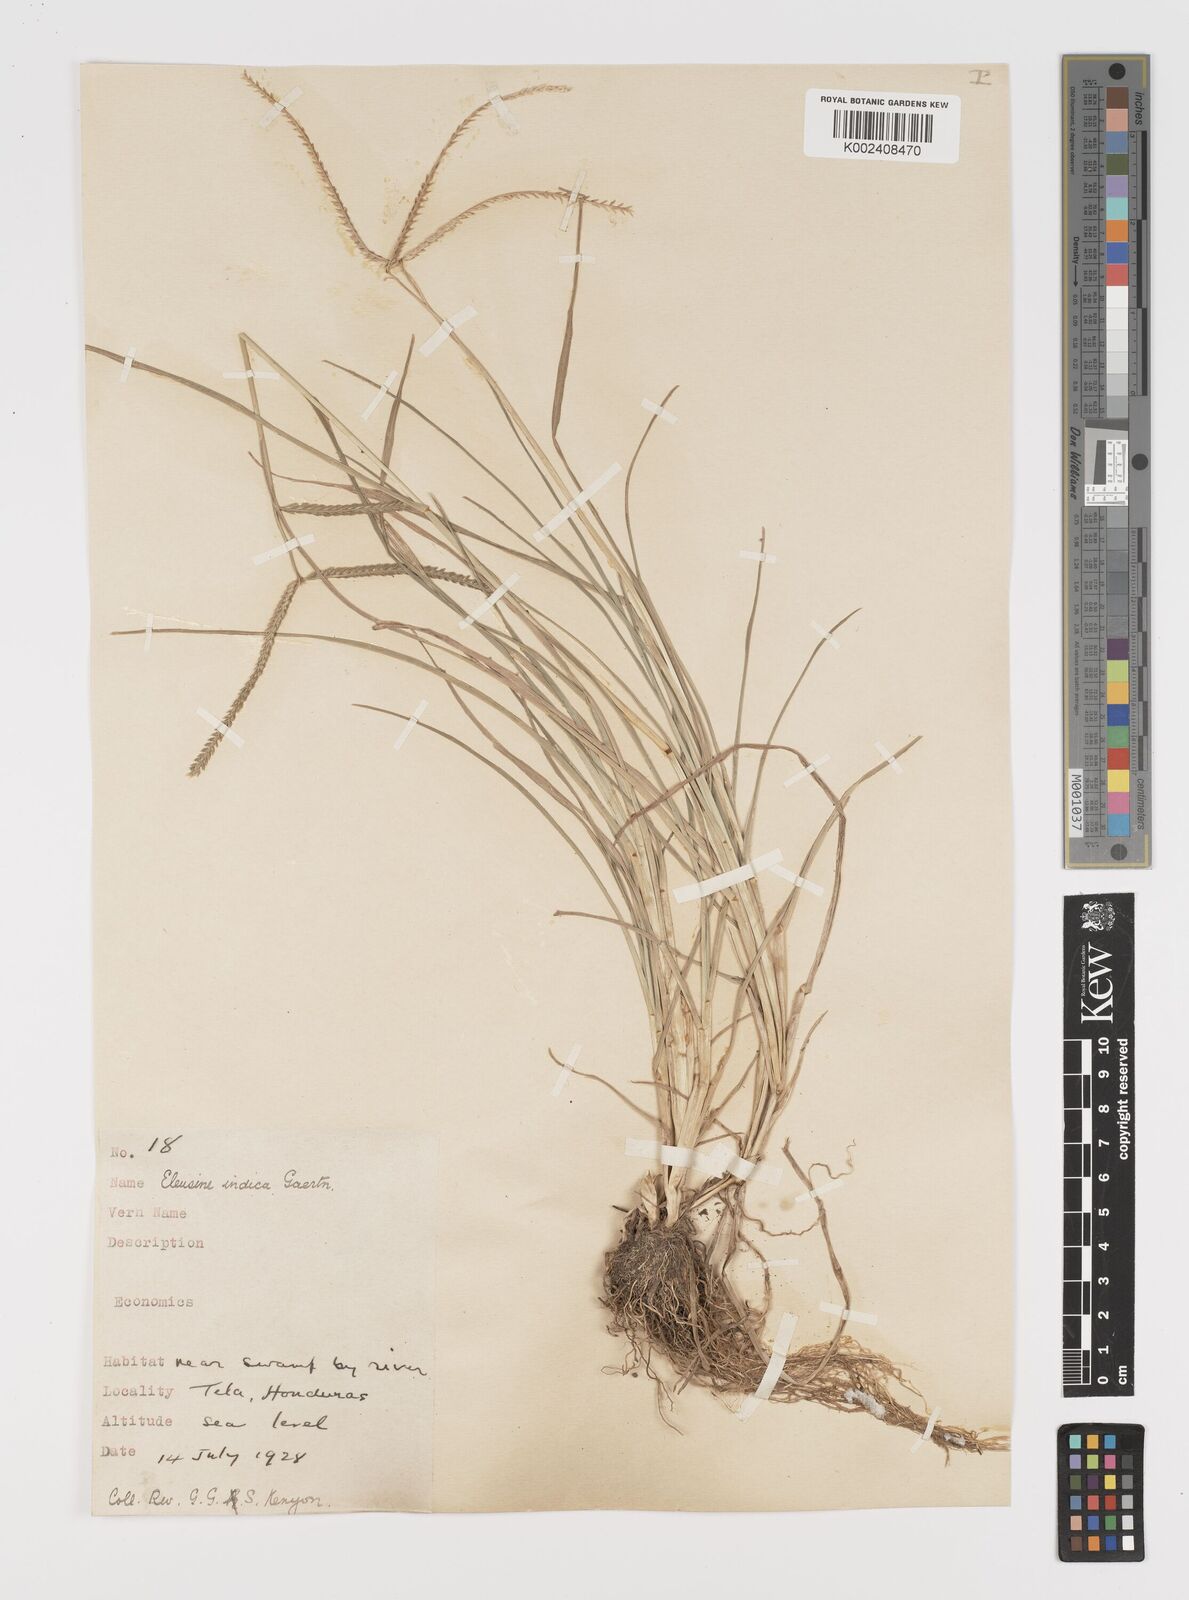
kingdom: Plantae
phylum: Tracheophyta
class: Liliopsida
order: Poales
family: Poaceae
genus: Eleusine
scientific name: Eleusine indica
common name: Yard-grass
